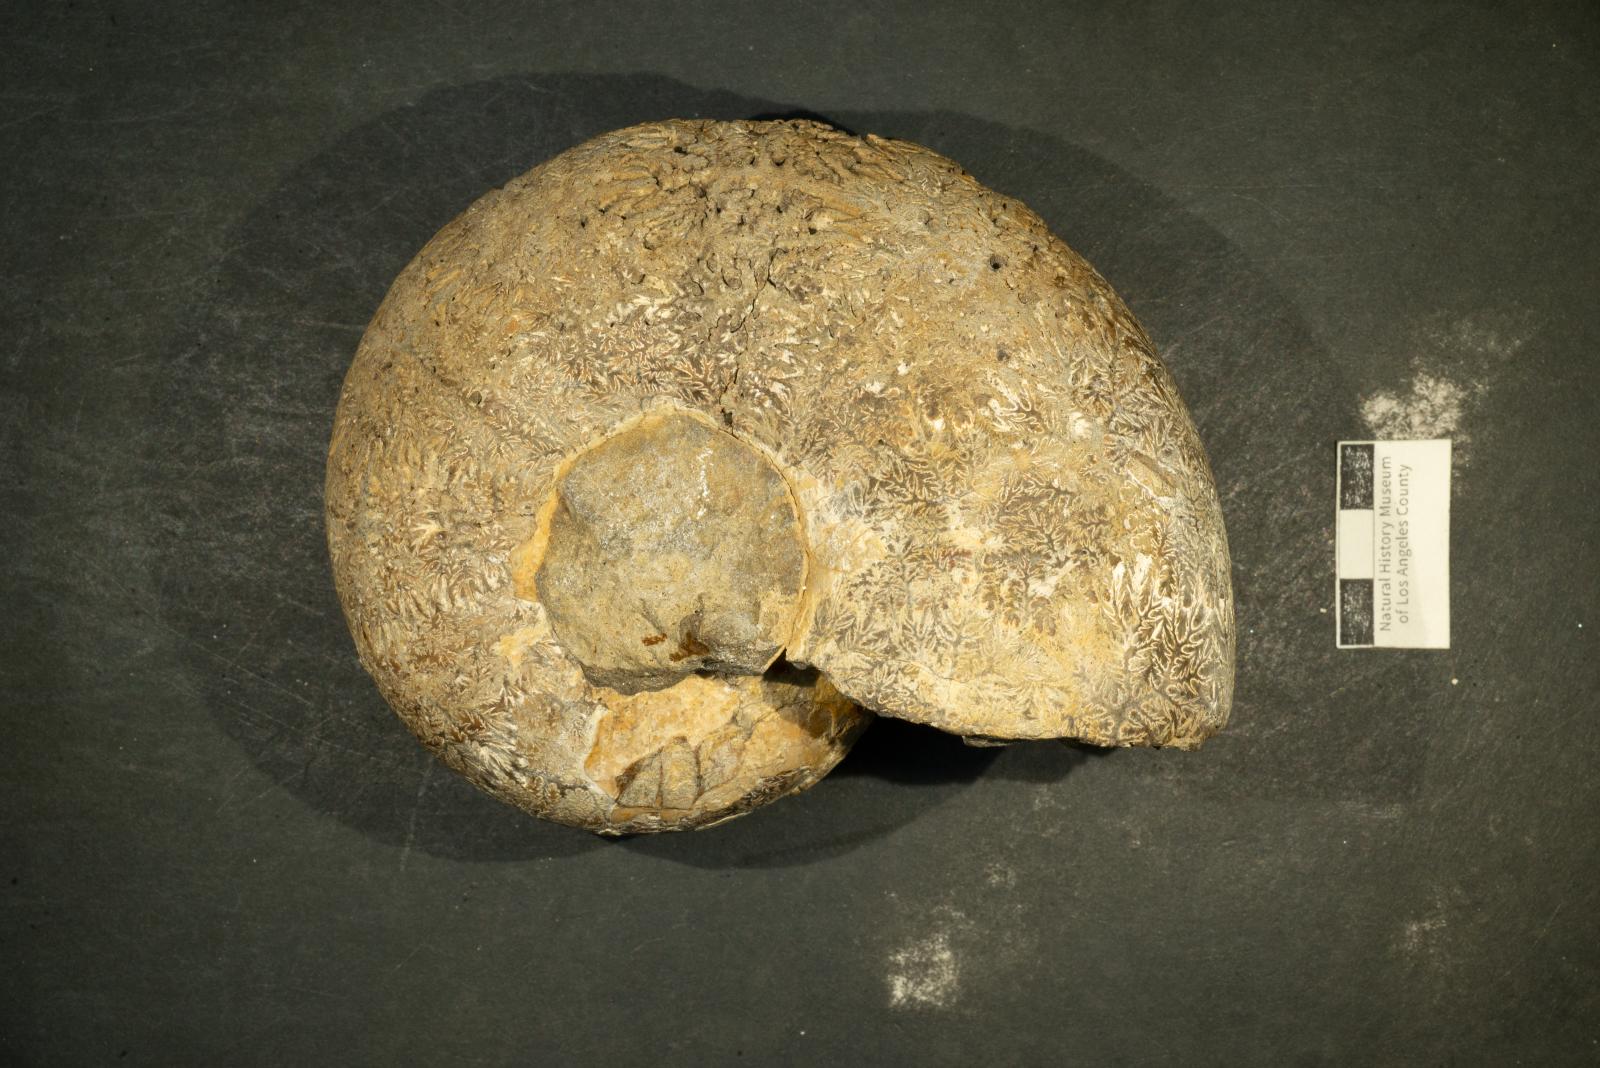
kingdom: Animalia
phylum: Mollusca
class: Cephalopoda
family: Pachydiscidae
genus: Menuites
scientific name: Menuites
